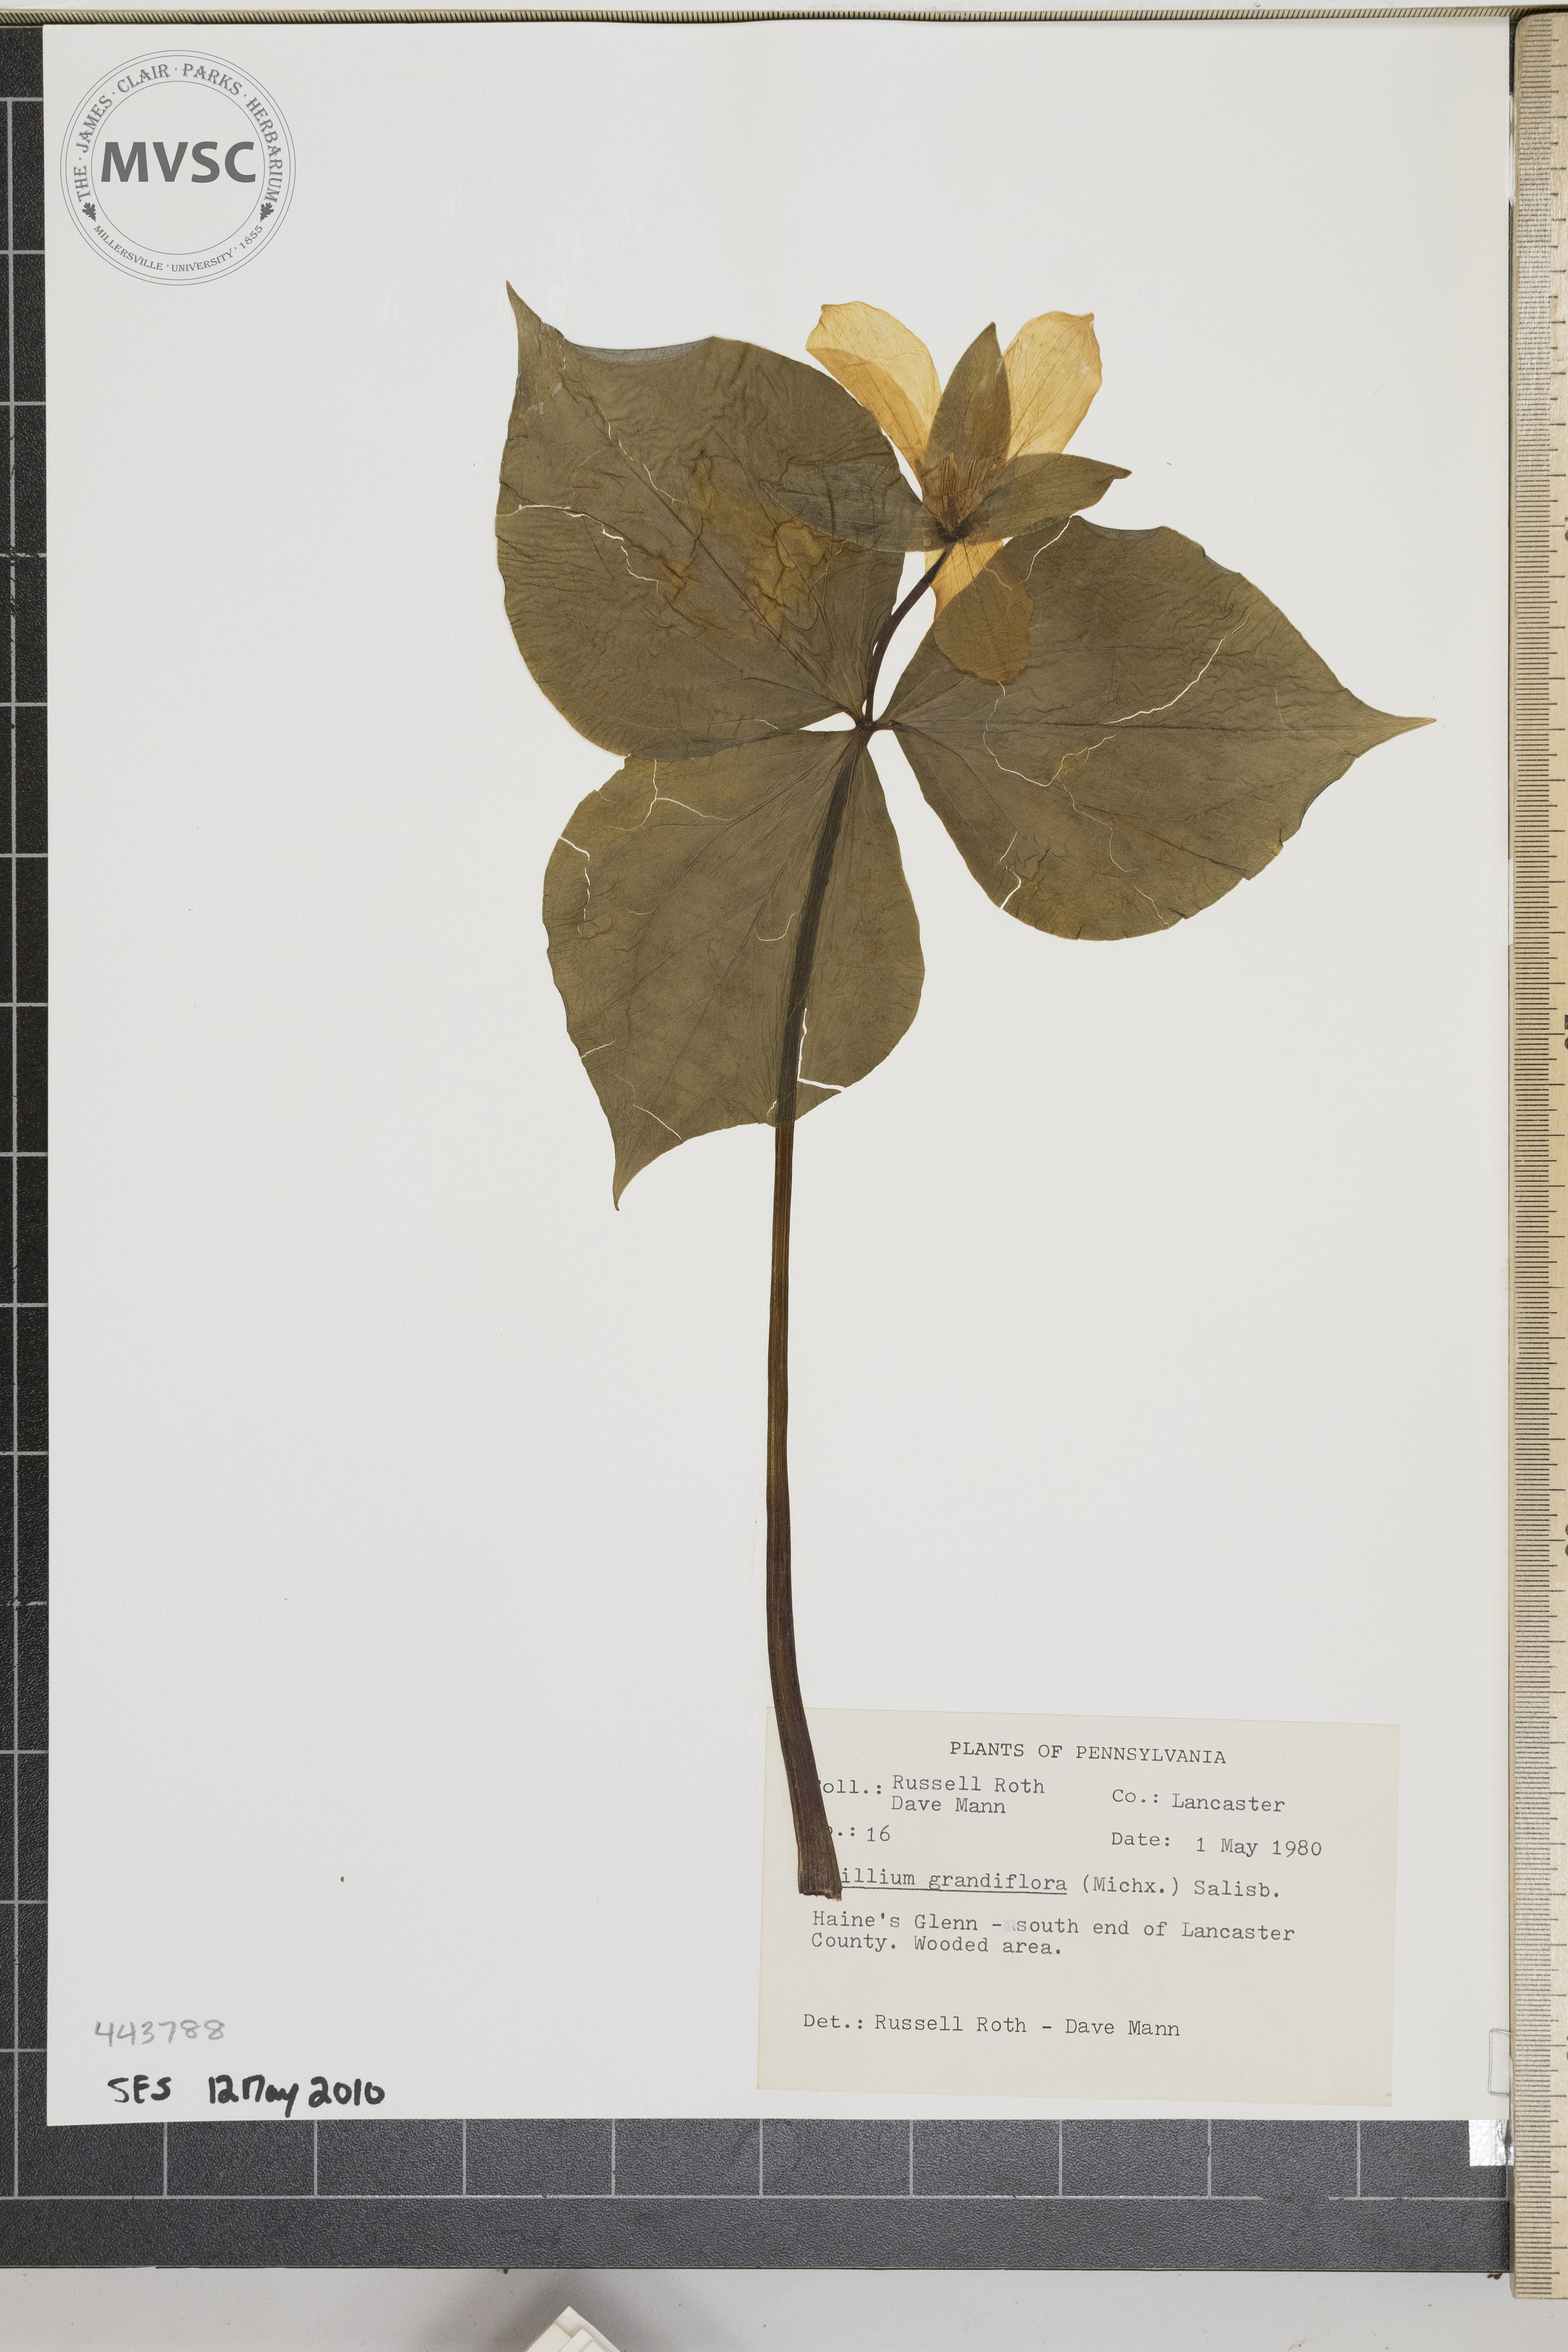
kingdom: Plantae
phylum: Tracheophyta
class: Liliopsida
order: Liliales
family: Melanthiaceae
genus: Trillium
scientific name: Trillium grandiflorum
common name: Great white trillium
